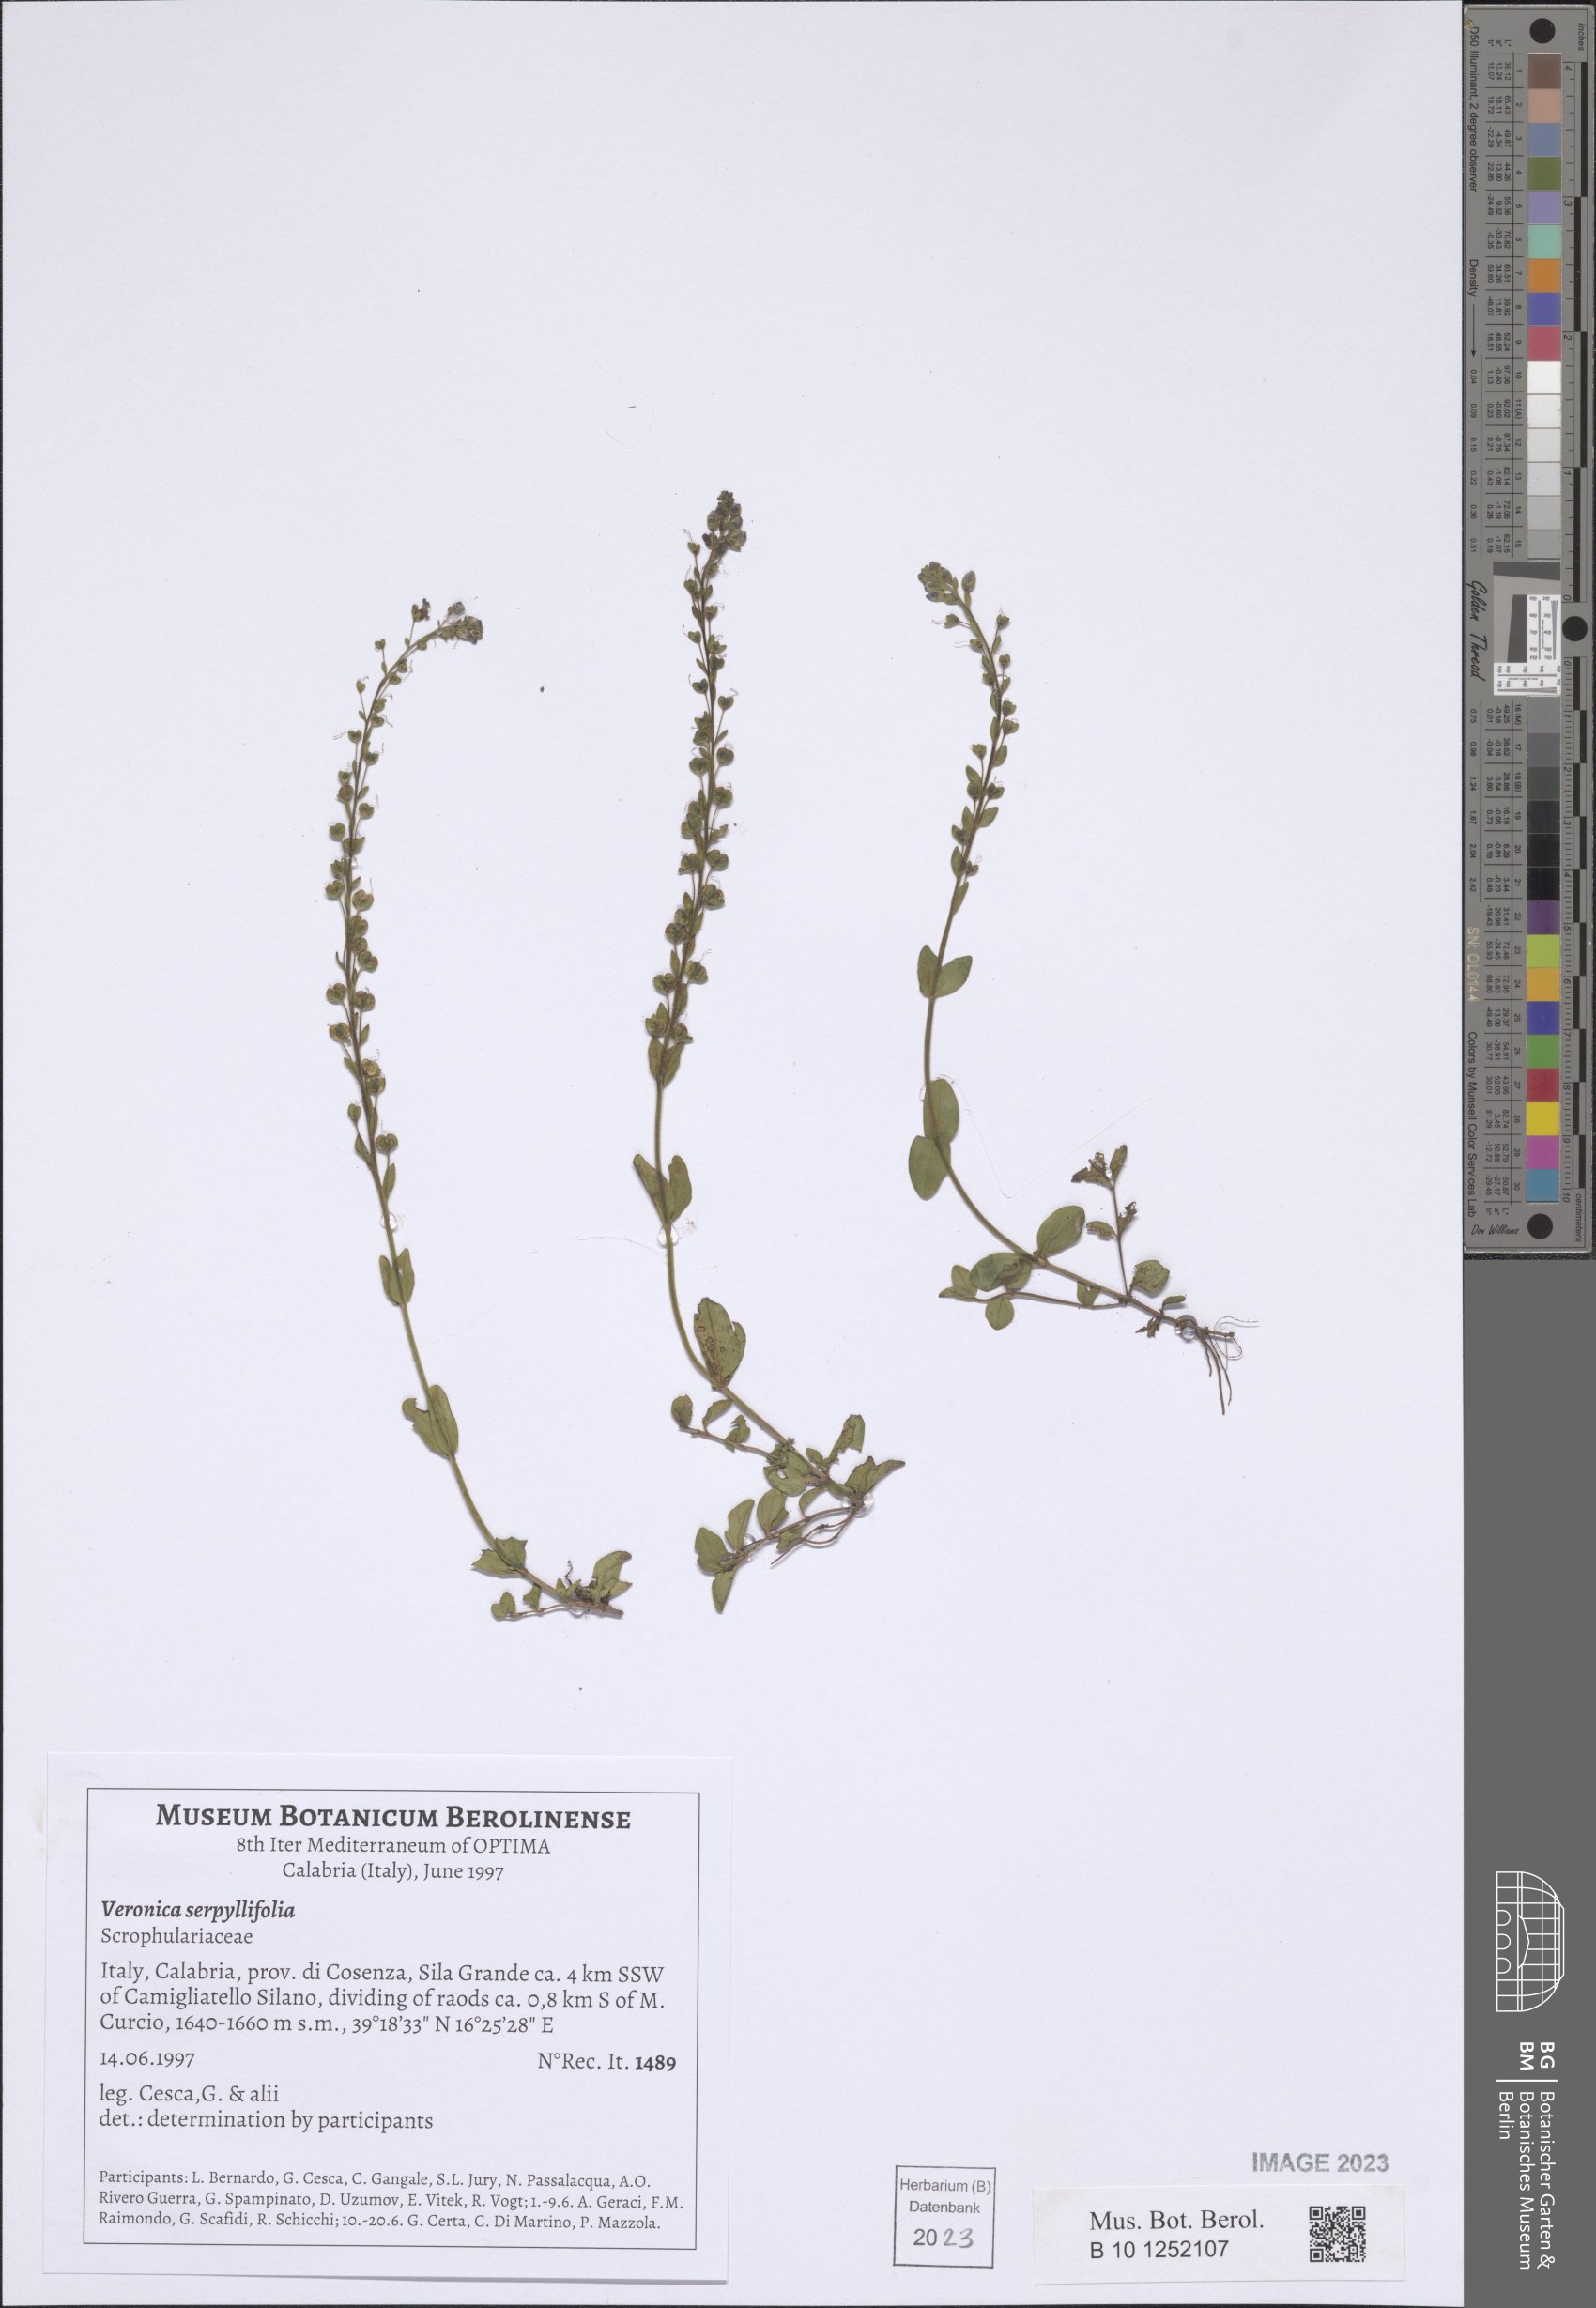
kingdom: Plantae
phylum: Tracheophyta
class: Magnoliopsida
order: Lamiales
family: Plantaginaceae
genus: Veronica
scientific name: Veronica serpyllifolia
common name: Thyme-leaved speedwell
